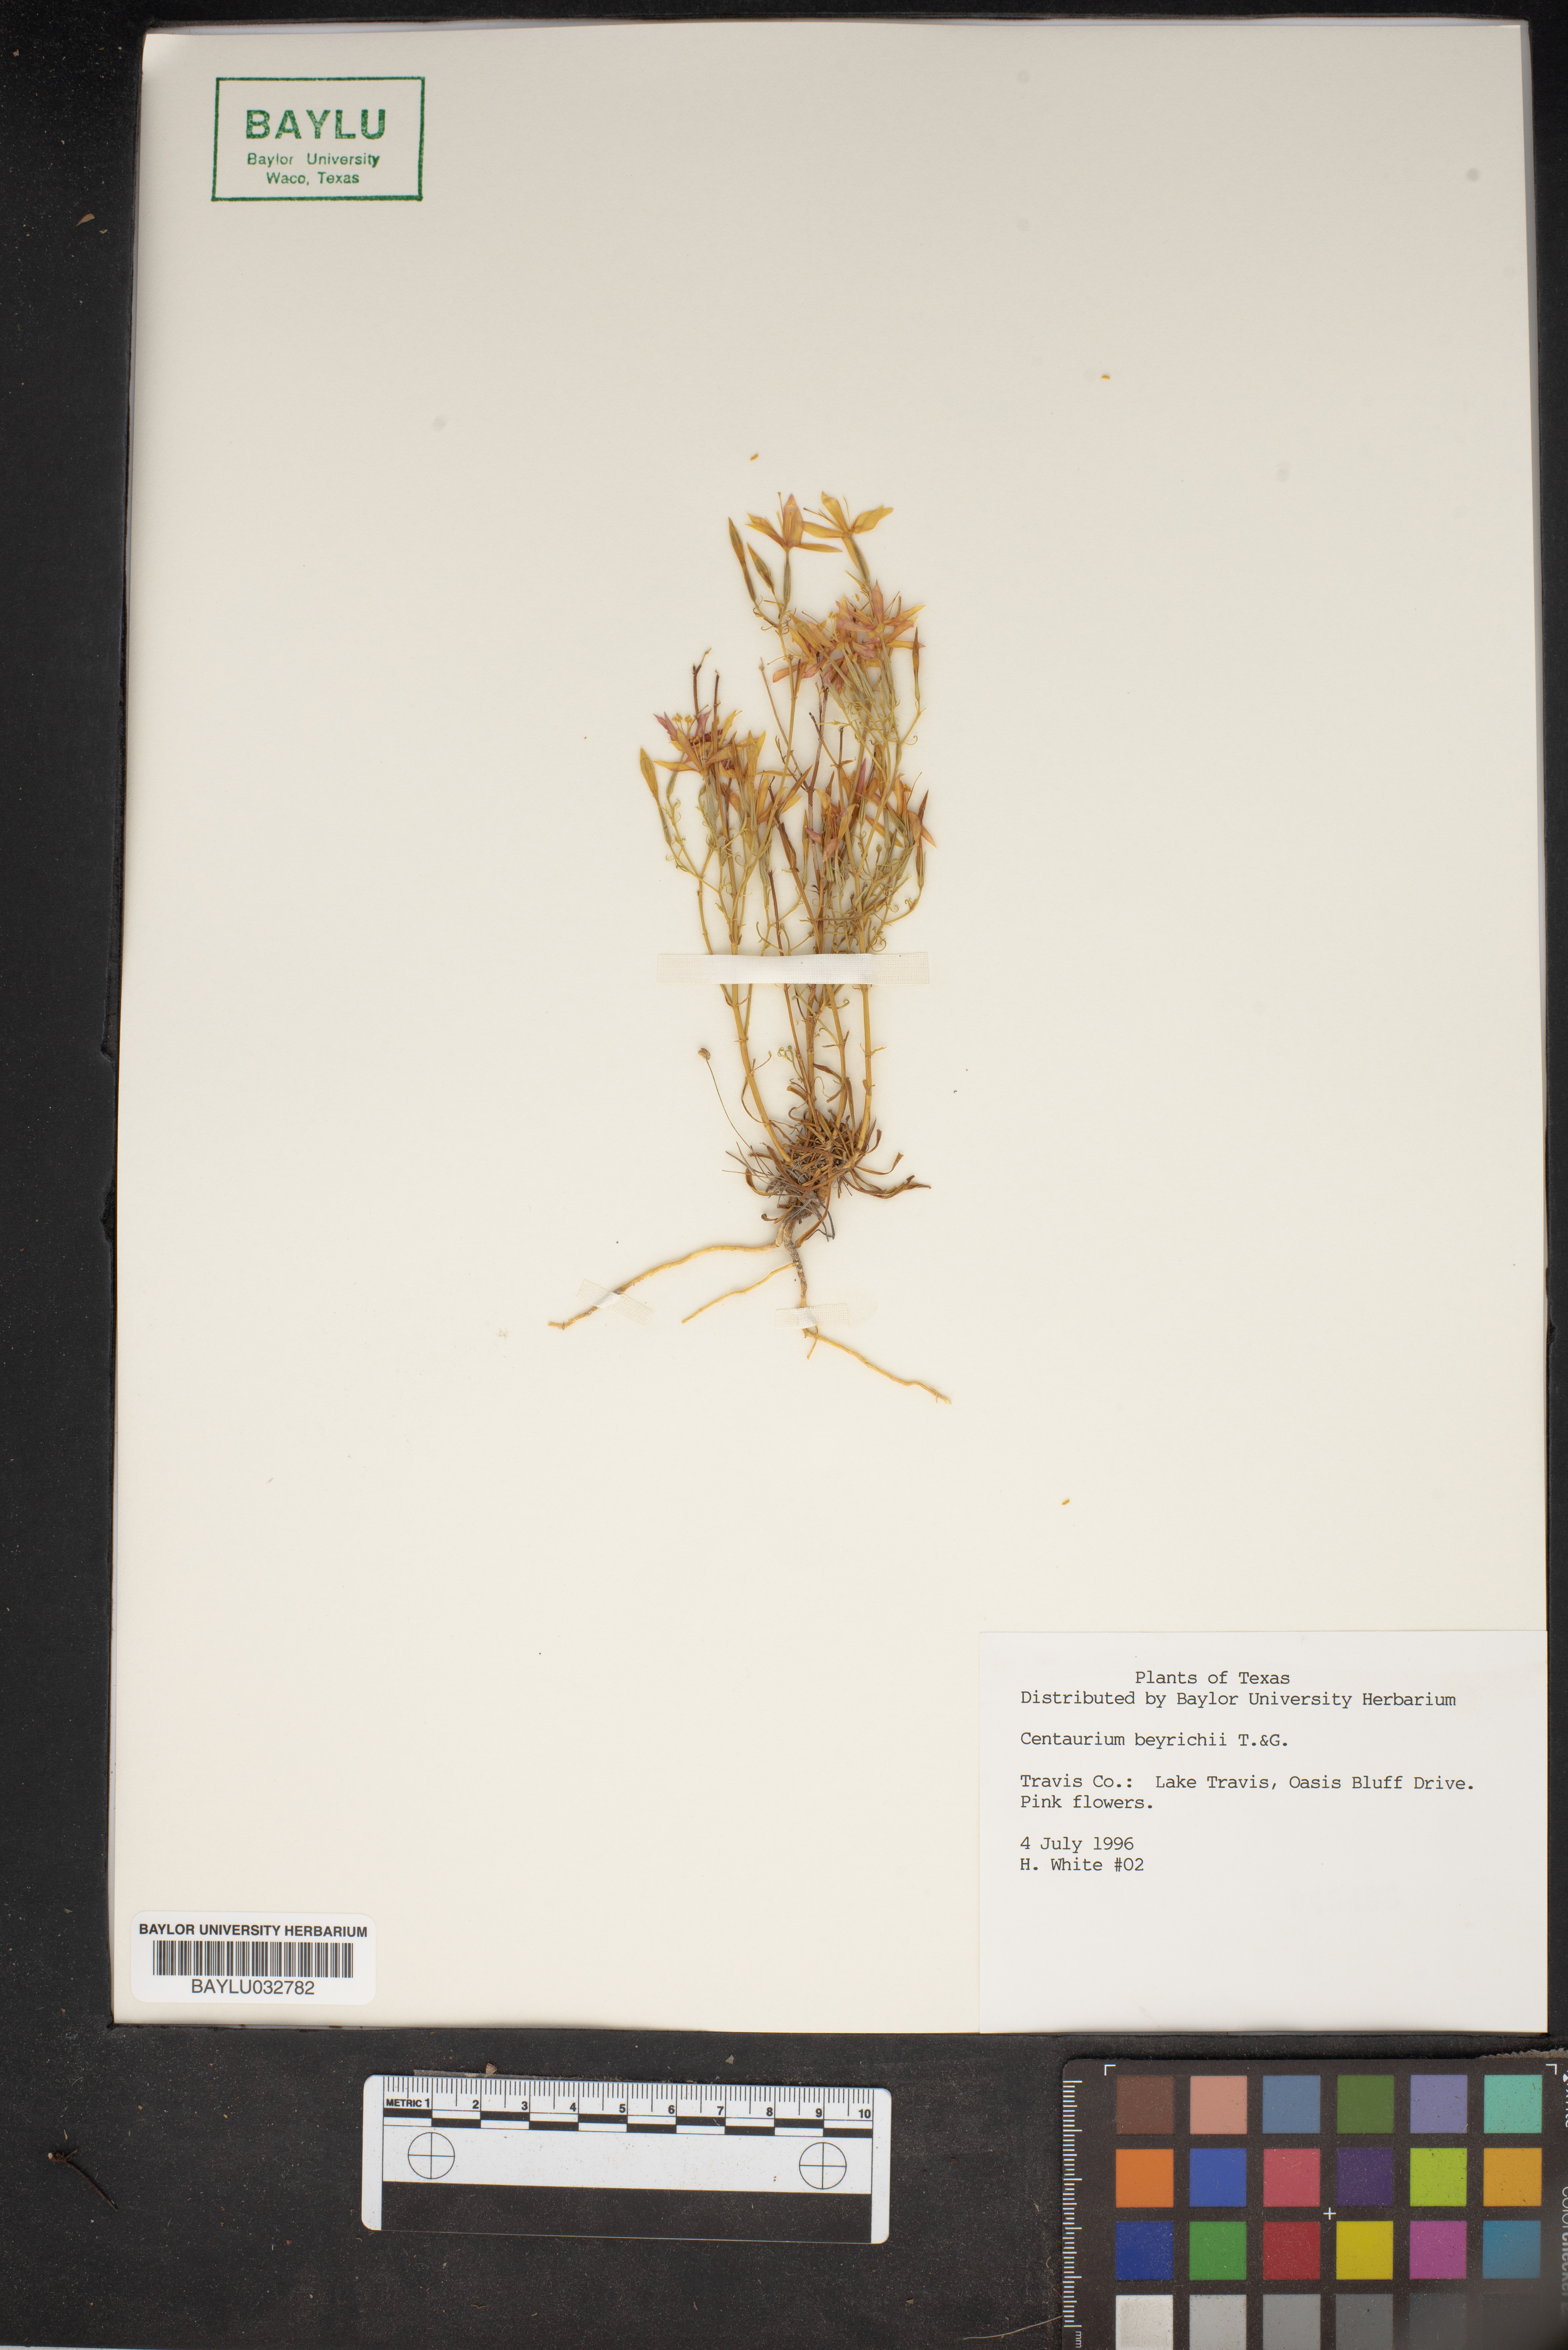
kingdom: Plantae
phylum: Tracheophyta
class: Magnoliopsida
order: Gentianales
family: Gentianaceae
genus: Zeltnera
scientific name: Zeltnera beyrichii
